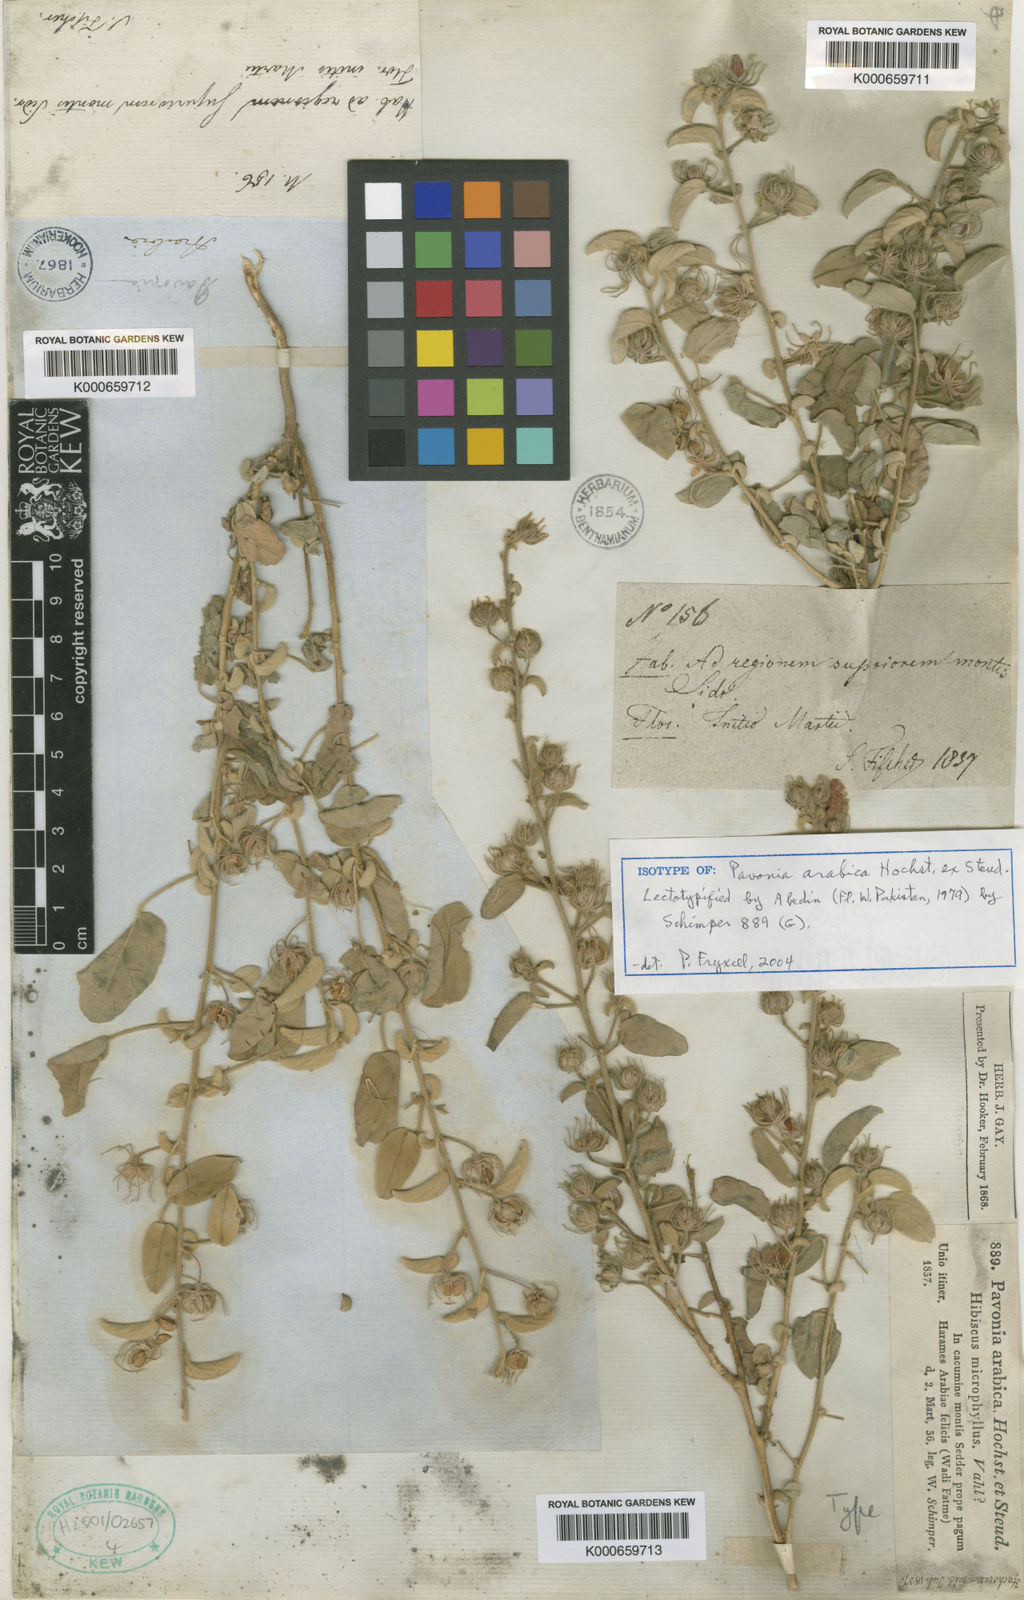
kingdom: Plantae
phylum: Tracheophyta
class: Magnoliopsida
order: Malvales
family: Malvaceae
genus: Pavonia
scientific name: Pavonia
